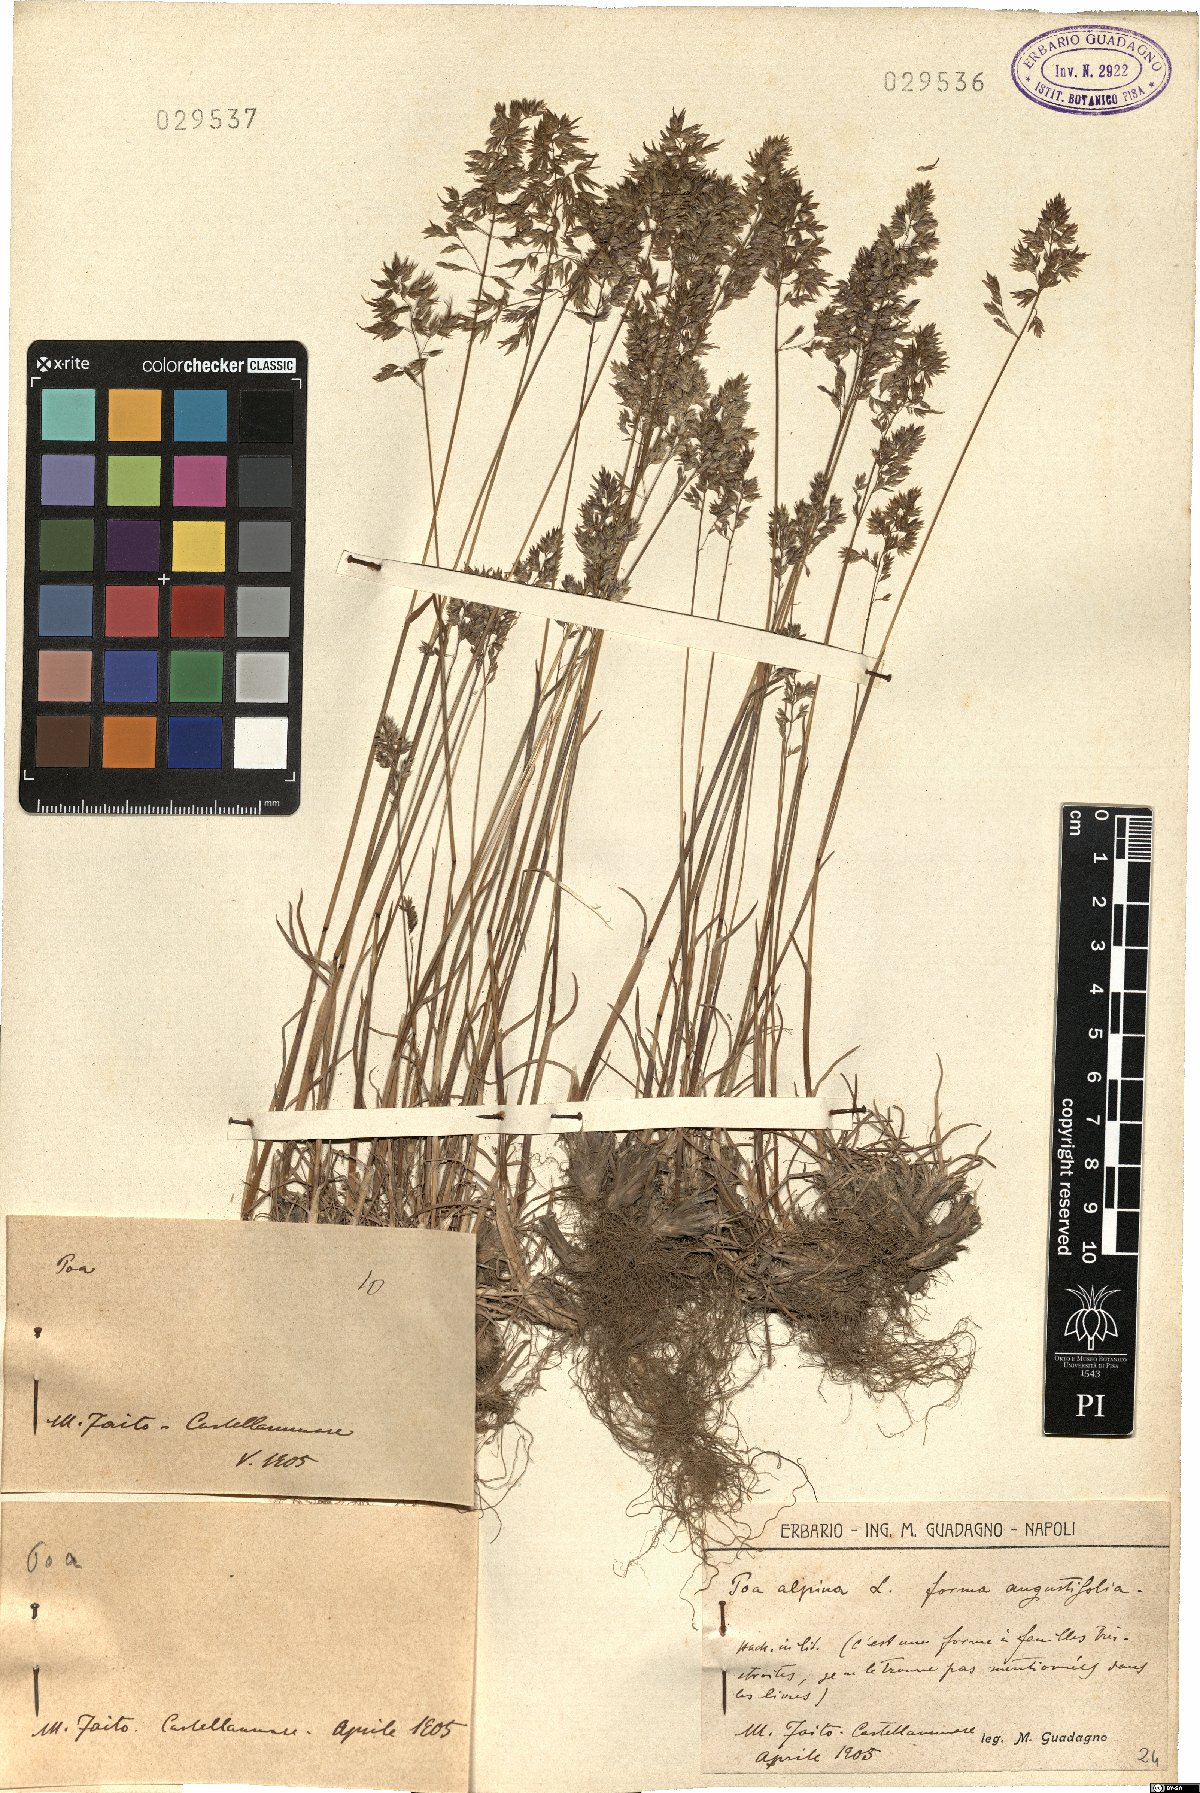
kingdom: Plantae
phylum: Tracheophyta
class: Liliopsida
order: Poales
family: Poaceae
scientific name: Poaceae
